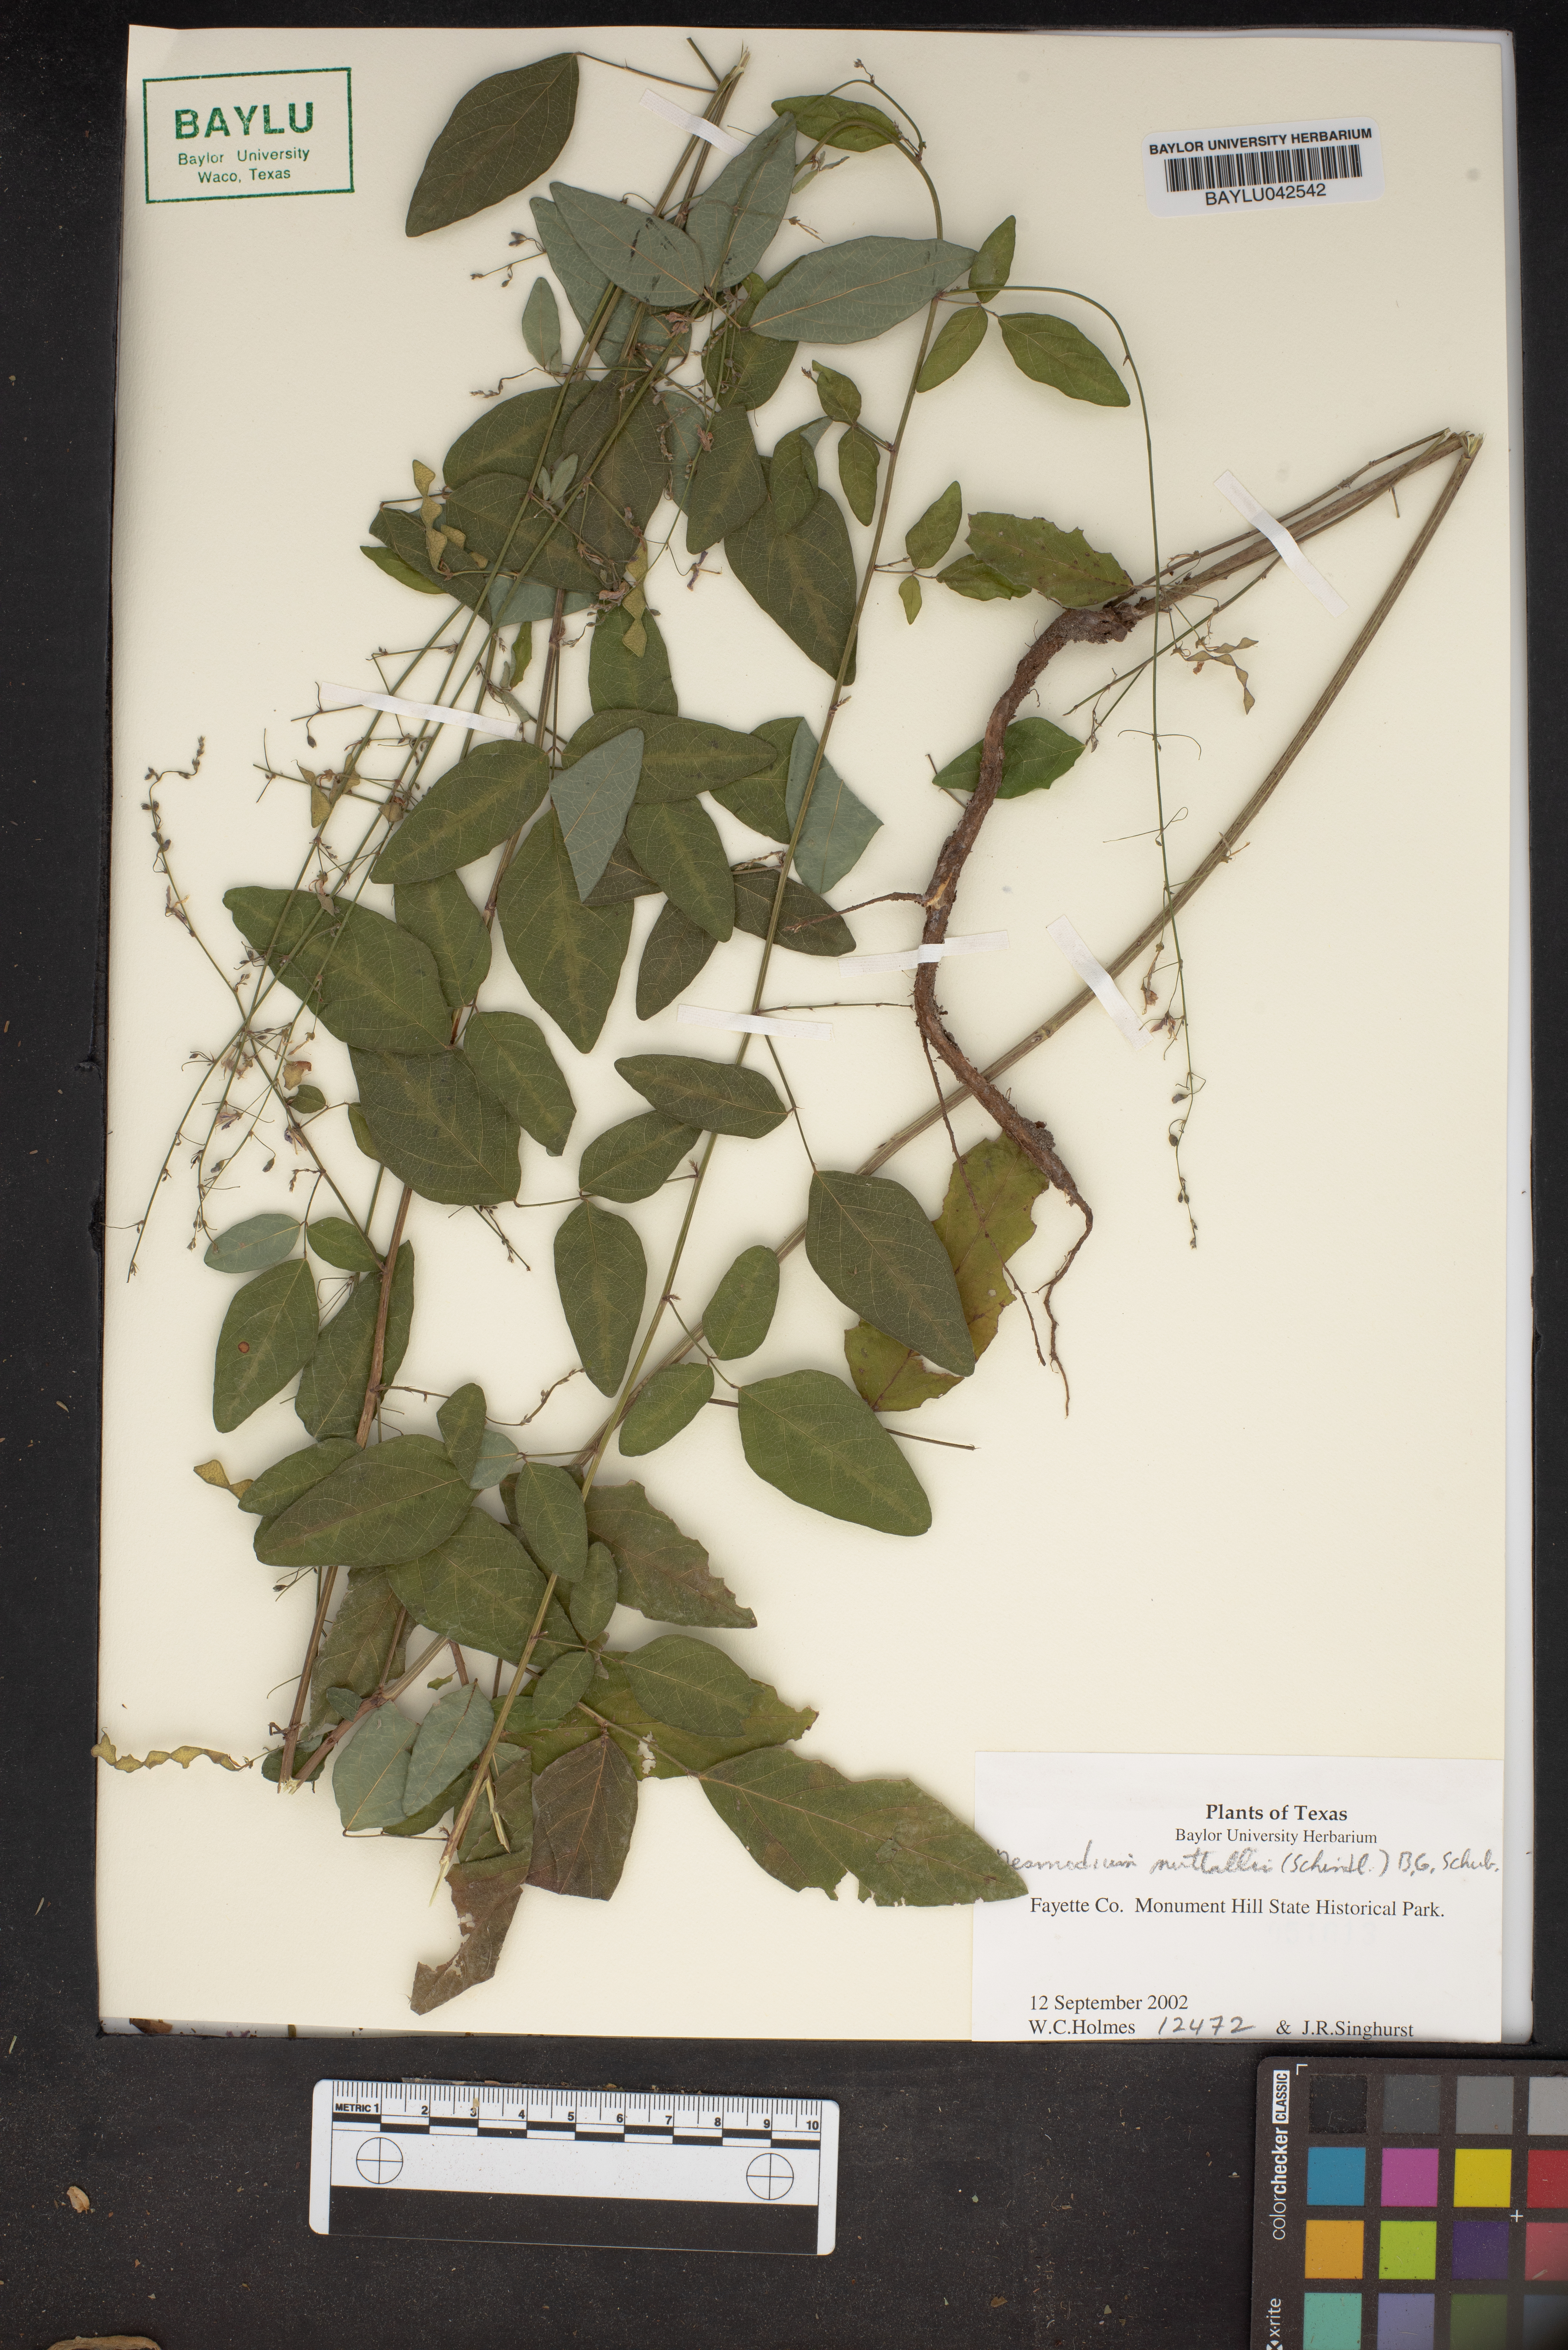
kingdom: Plantae
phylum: Tracheophyta
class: Magnoliopsida
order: Fabales
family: Fabaceae
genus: Desmodium
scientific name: Desmodium nuttallii
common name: Nuttall's tick trefoil
